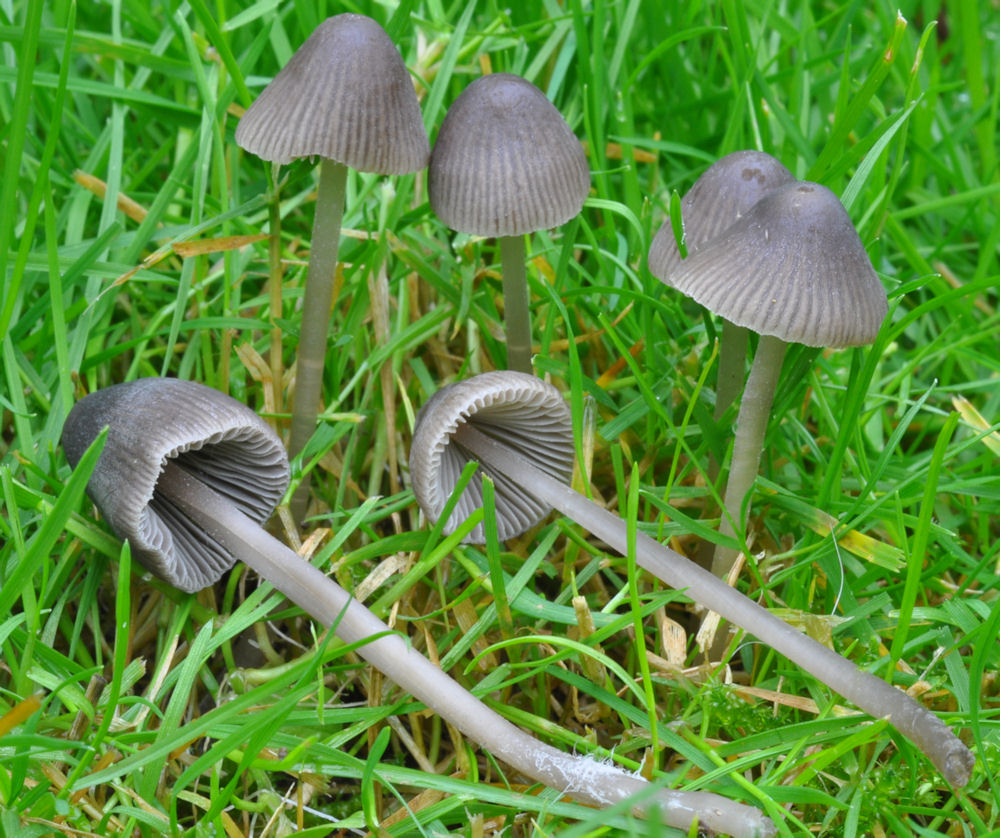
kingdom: Fungi
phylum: Basidiomycota
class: Agaricomycetes
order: Agaricales
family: Mycenaceae
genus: Mycena
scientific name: Mycena aetites
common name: plæne-huesvamp
